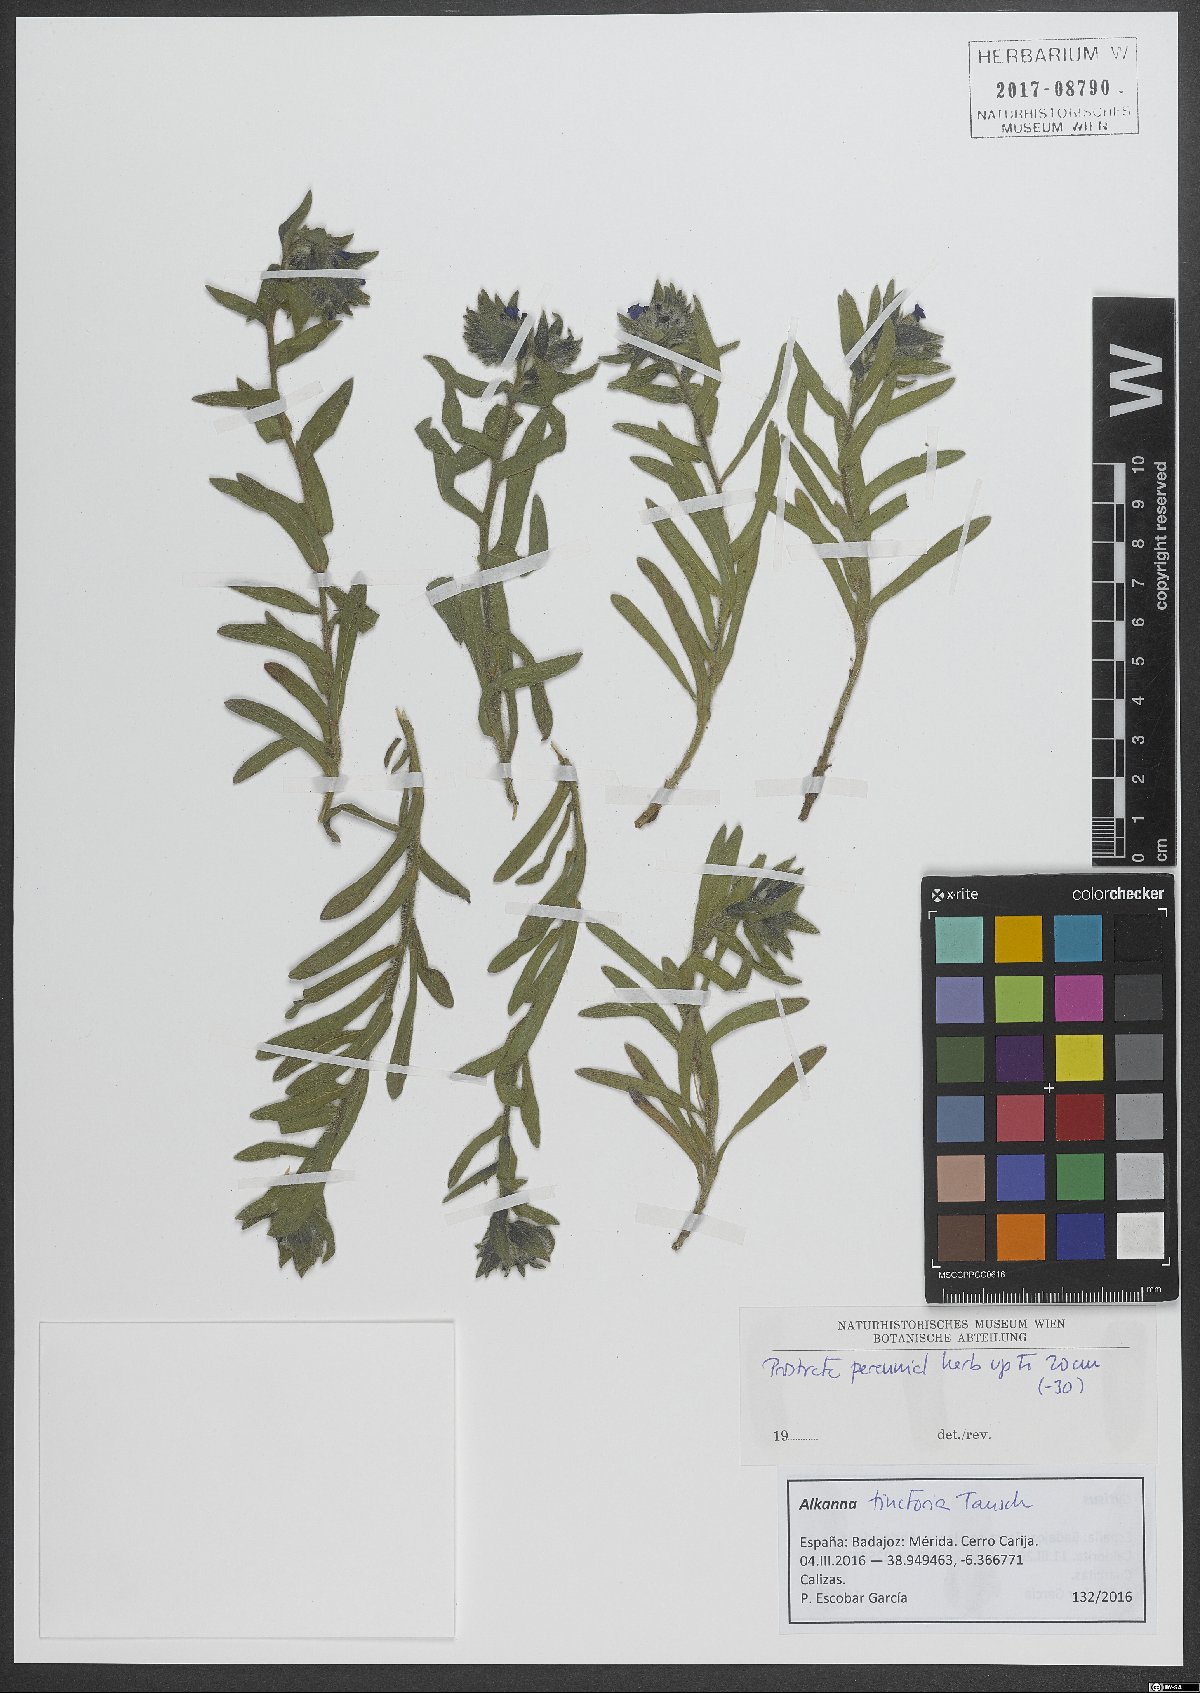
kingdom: Plantae
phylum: Tracheophyta
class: Magnoliopsida
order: Boraginales
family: Boraginaceae
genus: Alkanna
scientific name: Alkanna tinctoria
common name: Dyer's-alkanet
